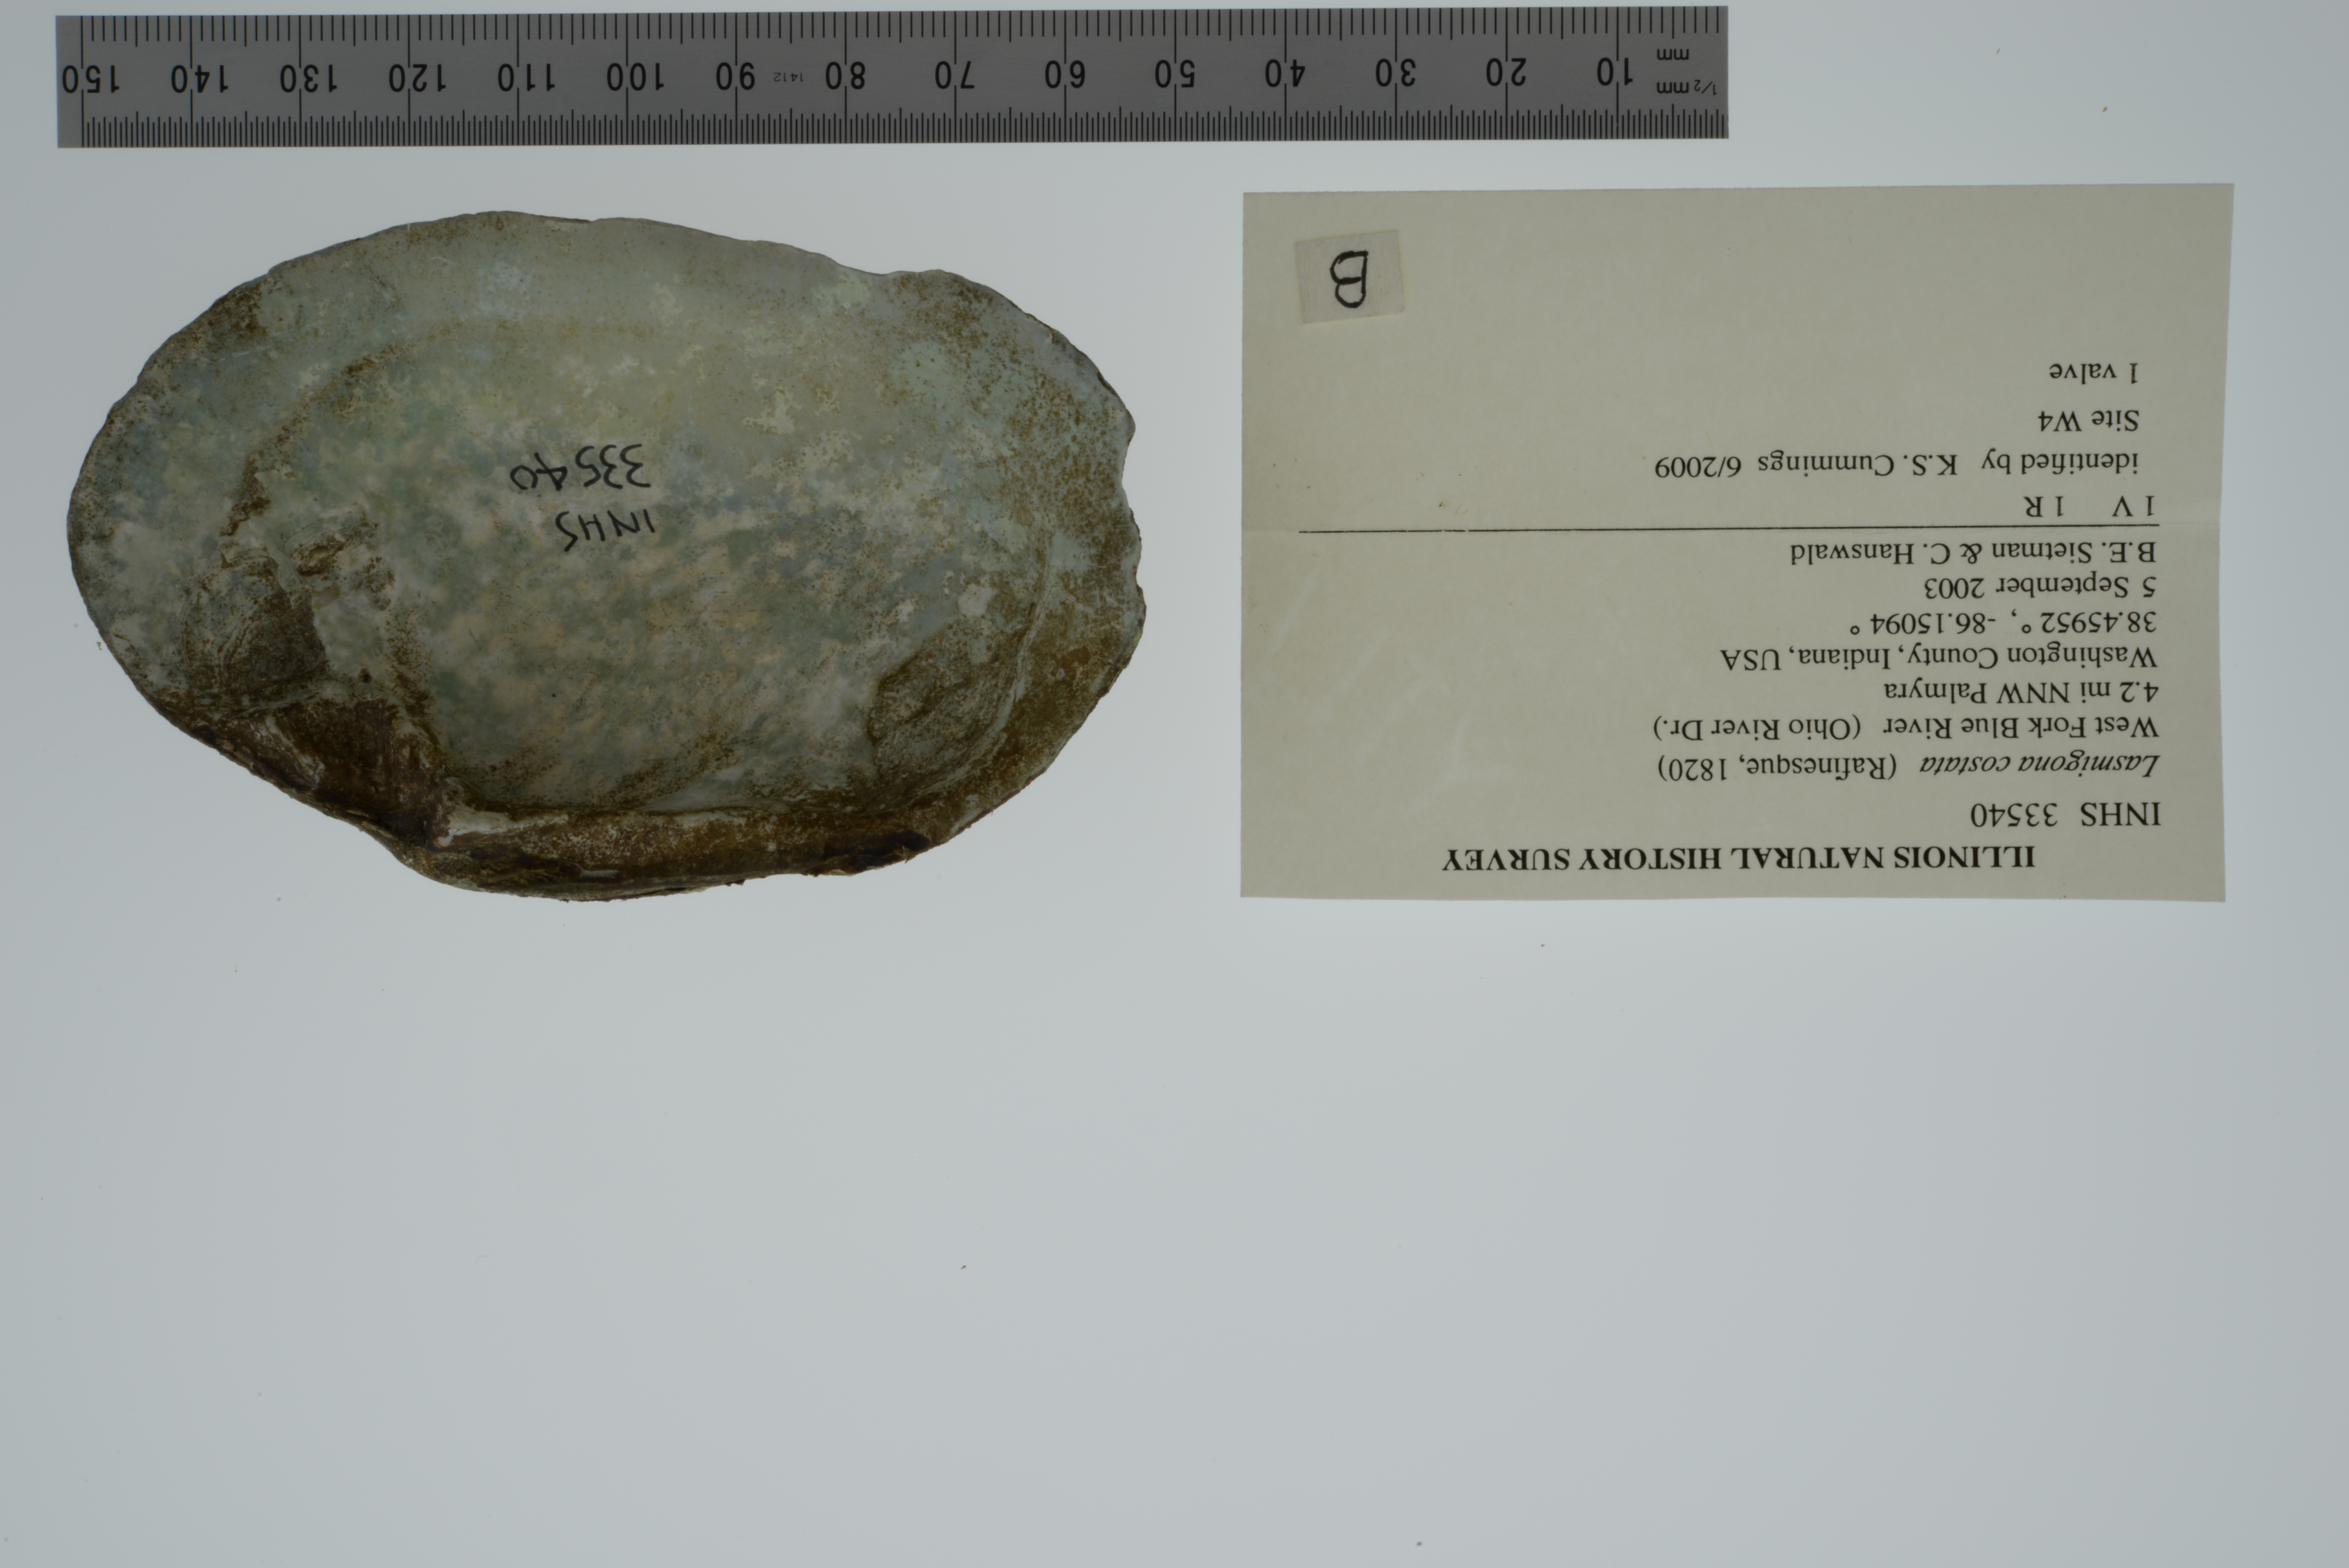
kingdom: Animalia
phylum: Mollusca
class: Bivalvia
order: Unionida
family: Unionidae
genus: Lasmigona
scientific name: Lasmigona costata
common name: Flutedshell
